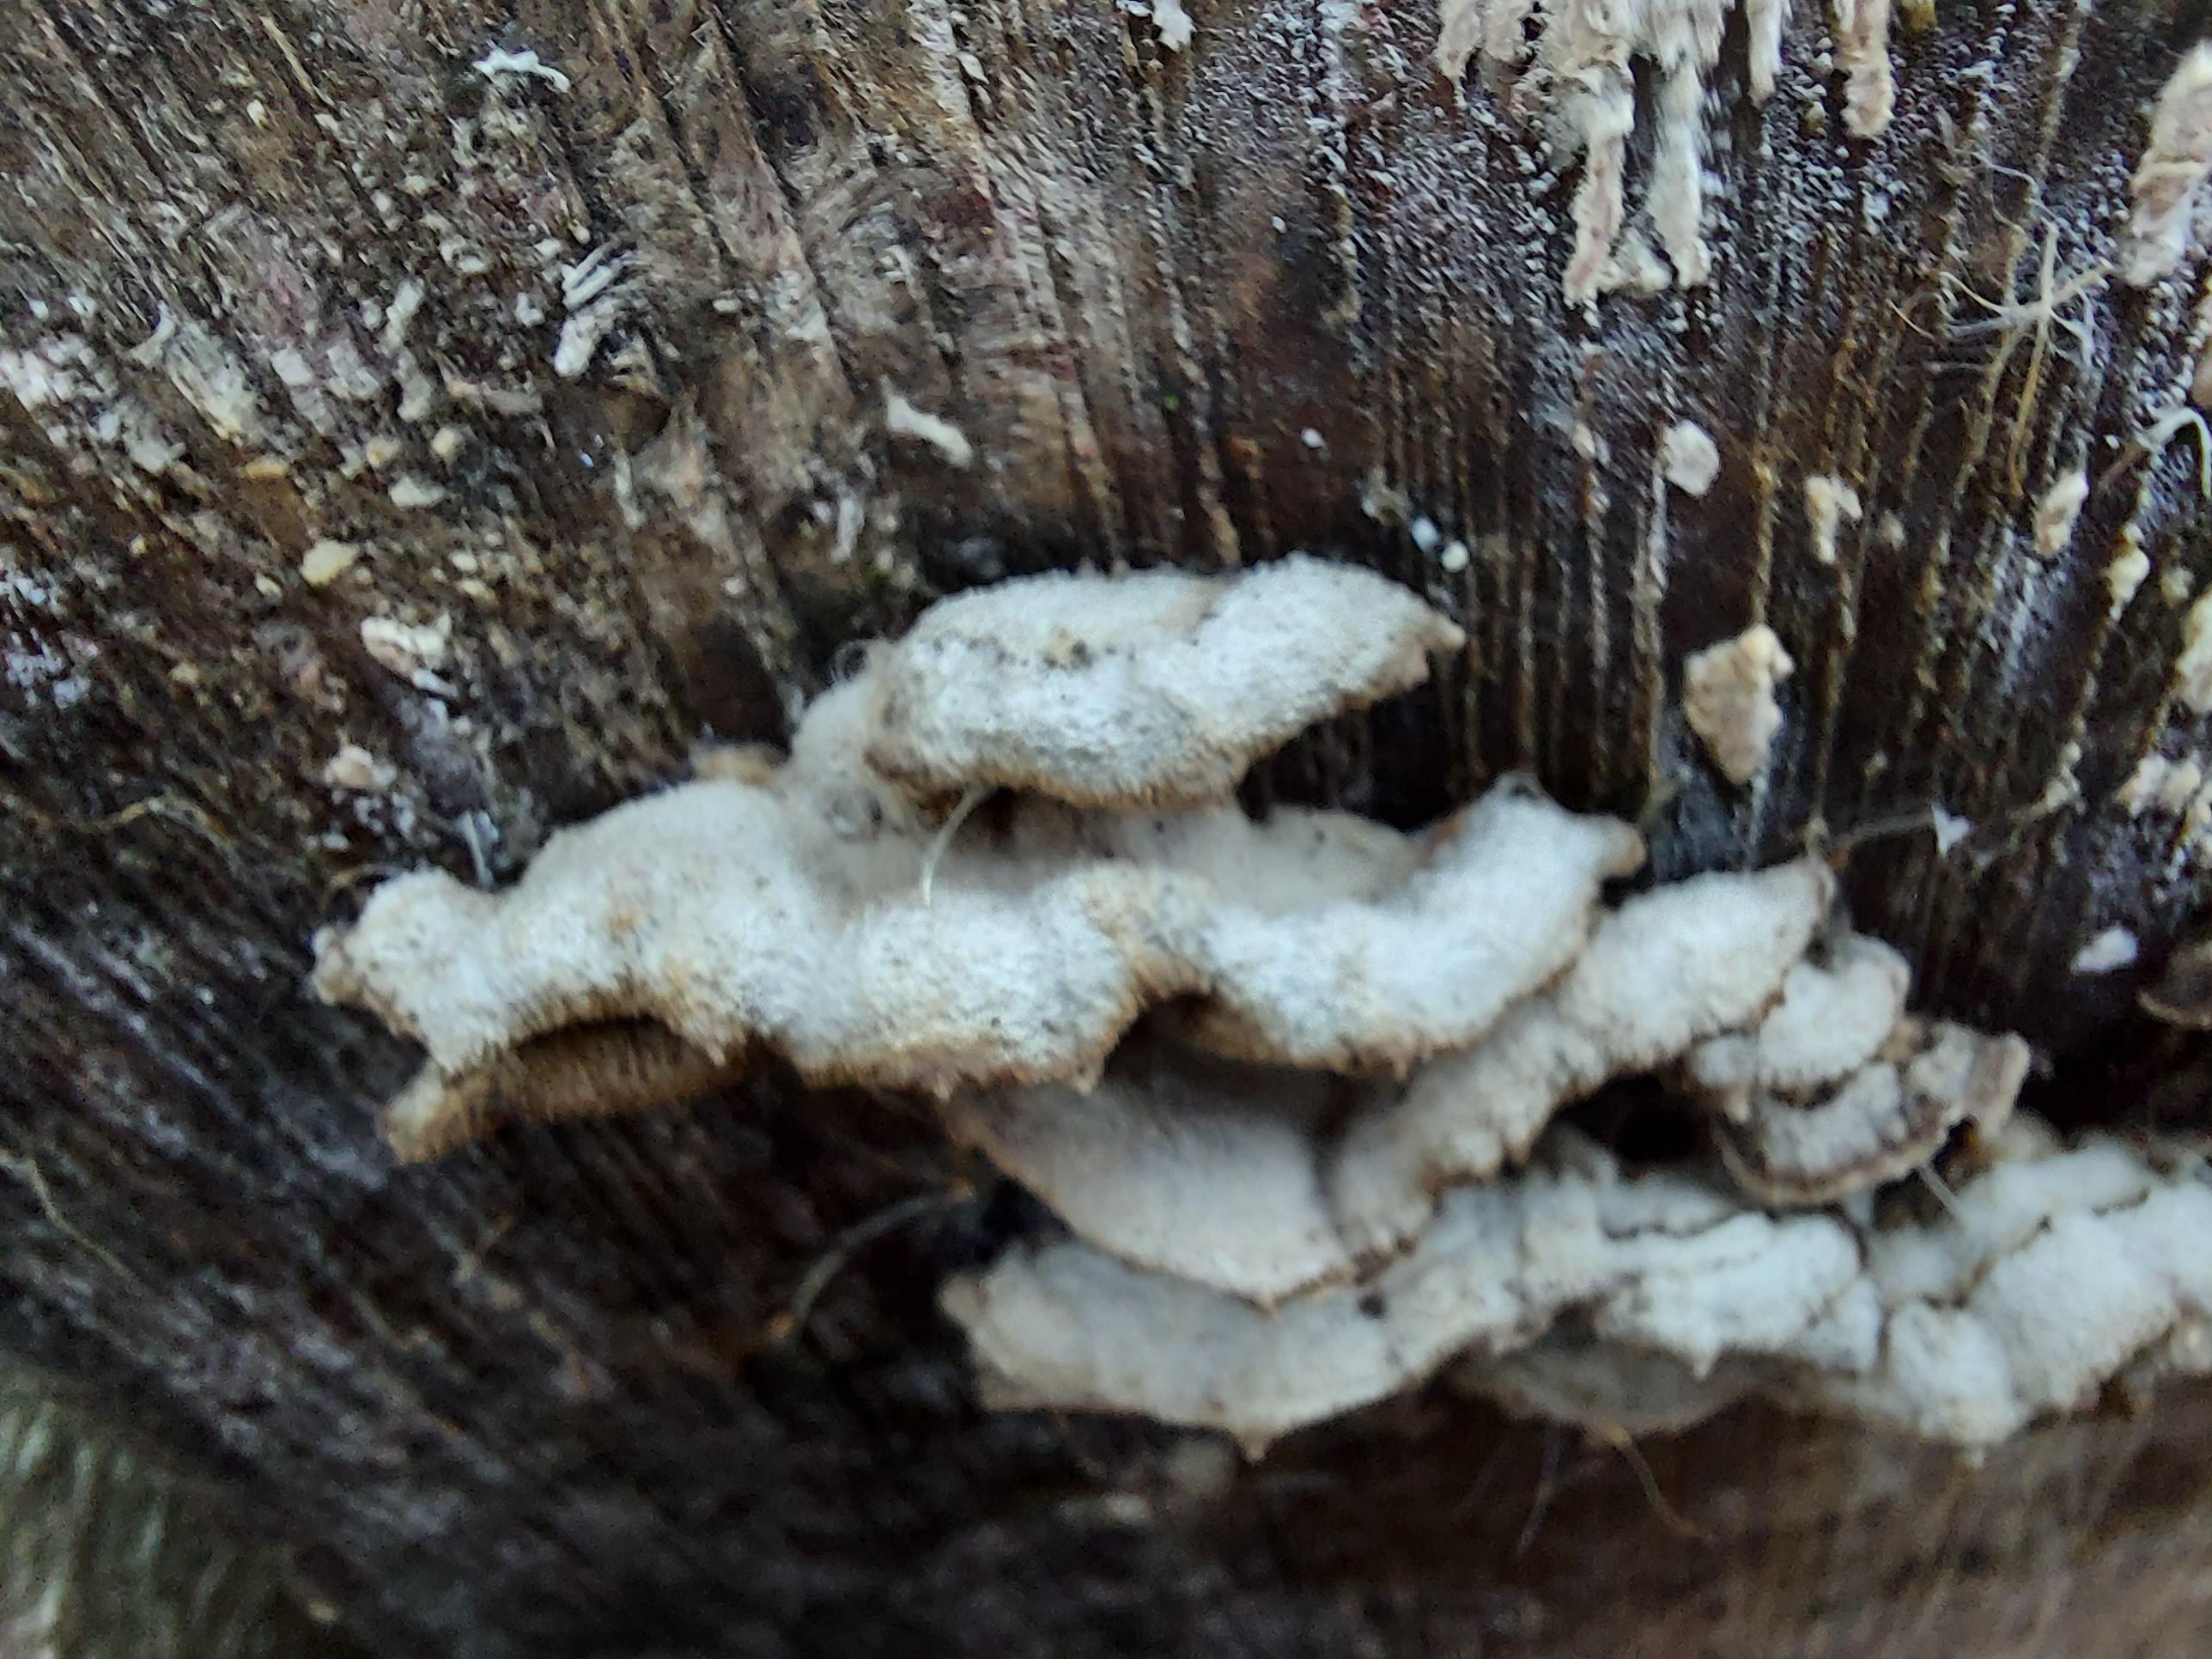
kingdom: Fungi
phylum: Basidiomycota
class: Agaricomycetes
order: Agaricales
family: Cyphellaceae
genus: Chondrostereum
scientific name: Chondrostereum purpureum
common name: purpurlædersvamp
